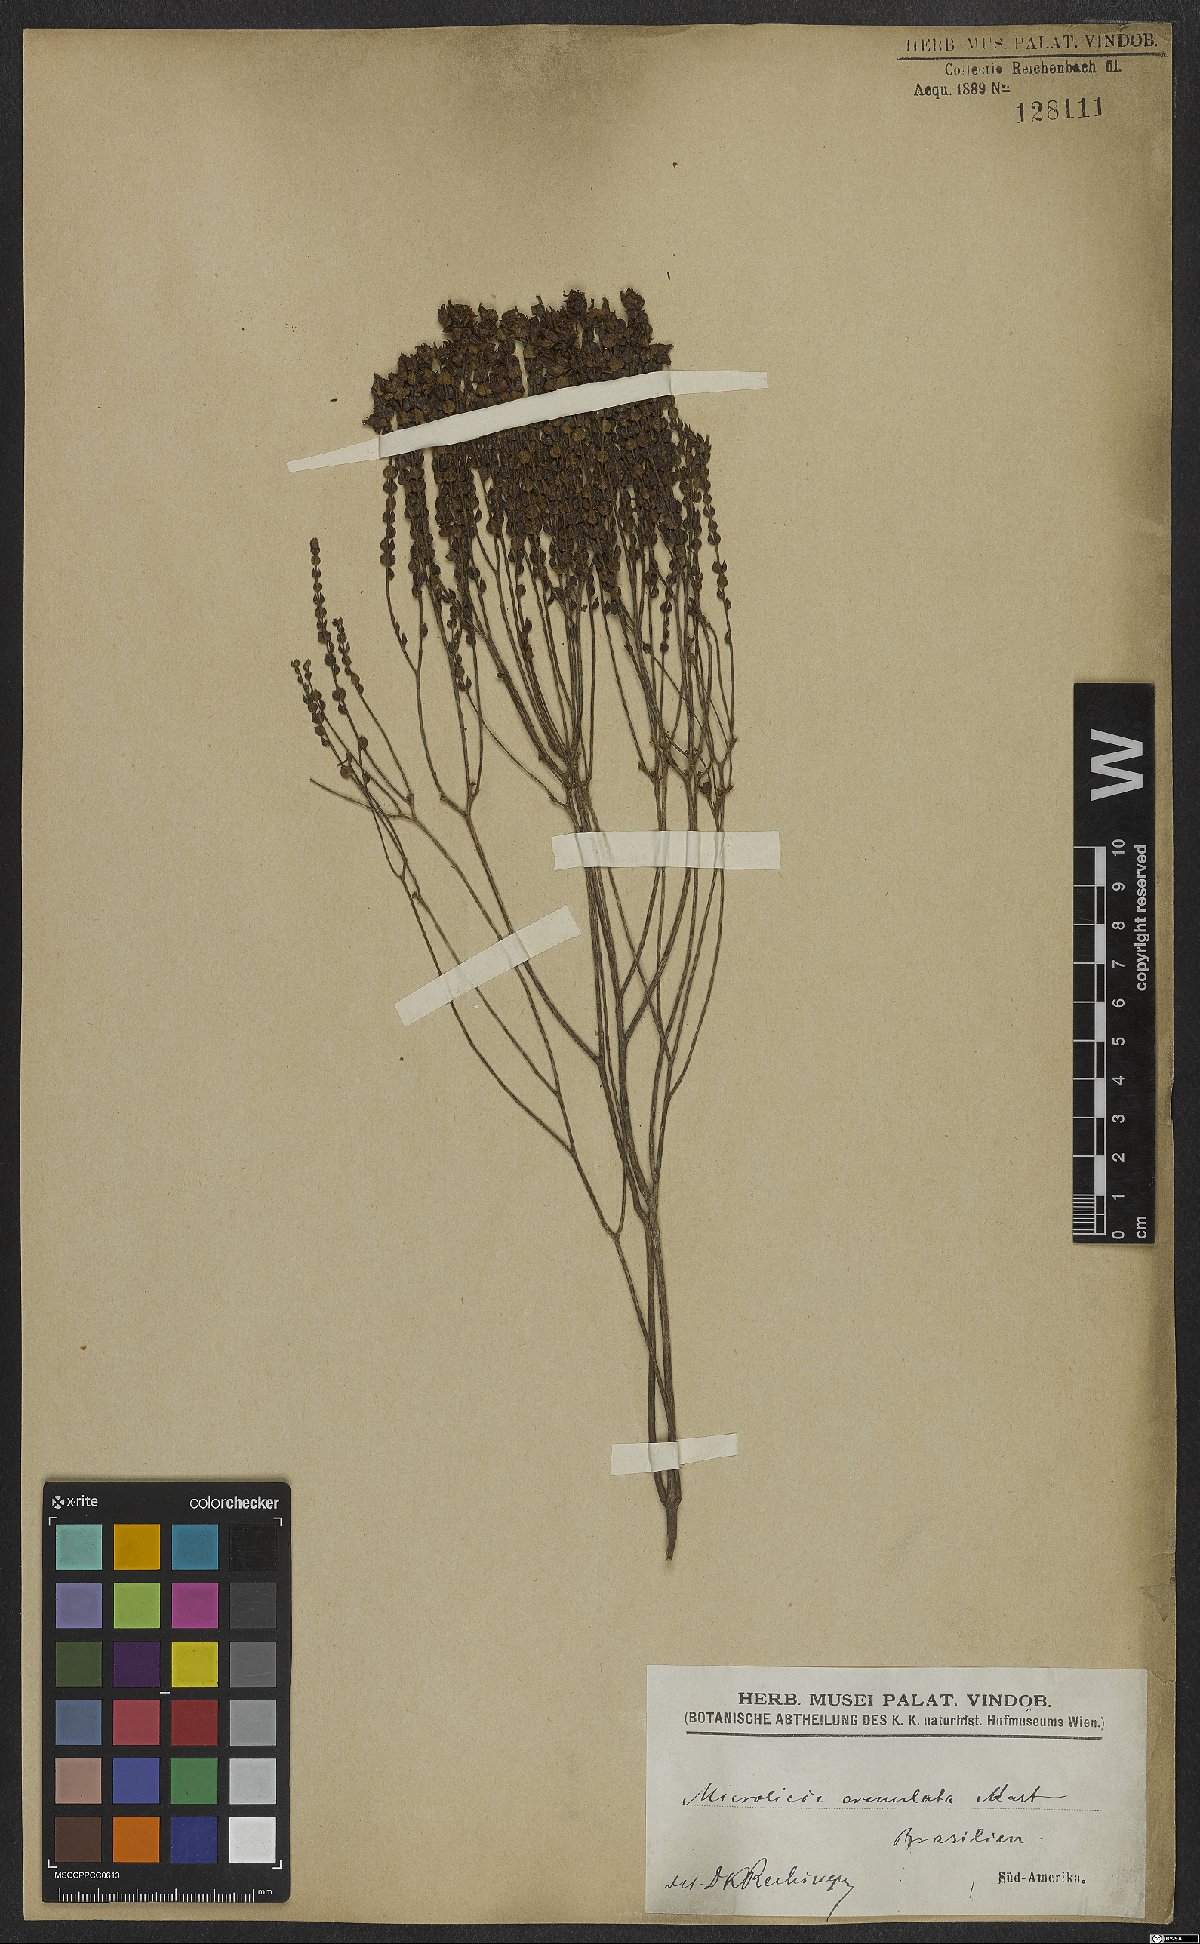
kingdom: Plantae
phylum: Tracheophyta
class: Magnoliopsida
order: Myrtales
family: Melastomataceae
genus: Microlicia
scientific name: Microlicia crenulata
